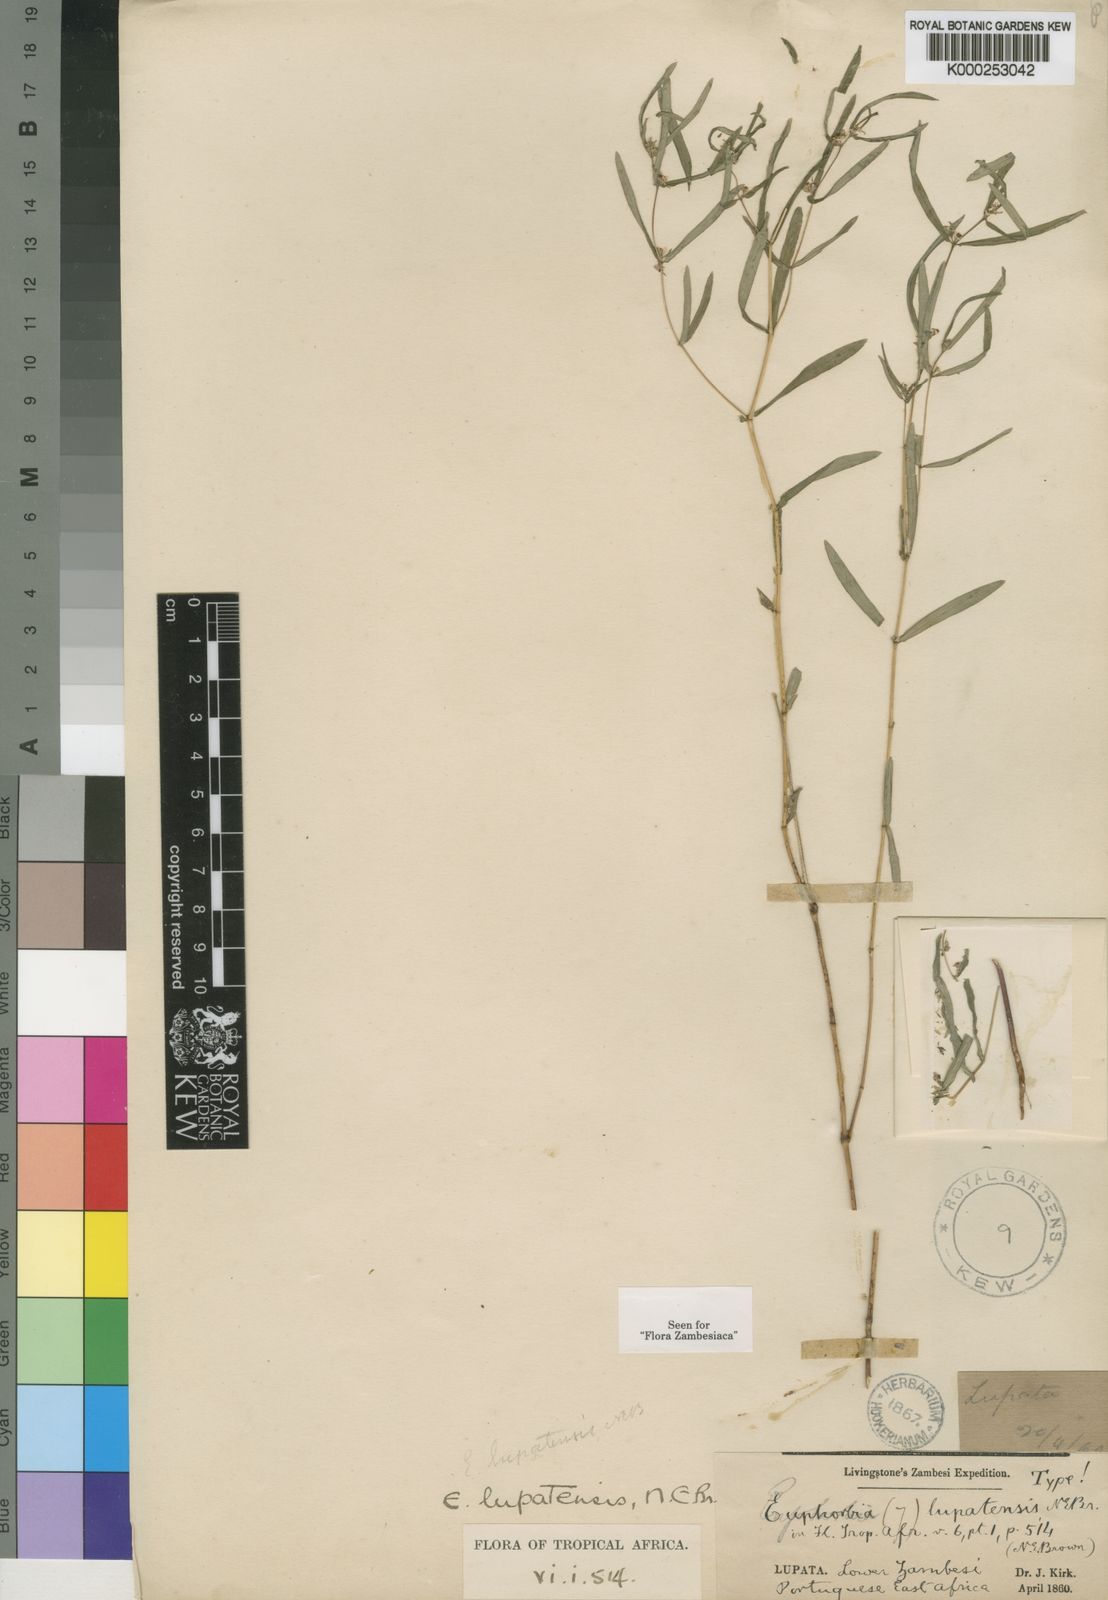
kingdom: Plantae
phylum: Tracheophyta
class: Magnoliopsida
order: Malpighiales
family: Euphorbiaceae
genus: Euphorbia
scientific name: Euphorbia lupatensis
